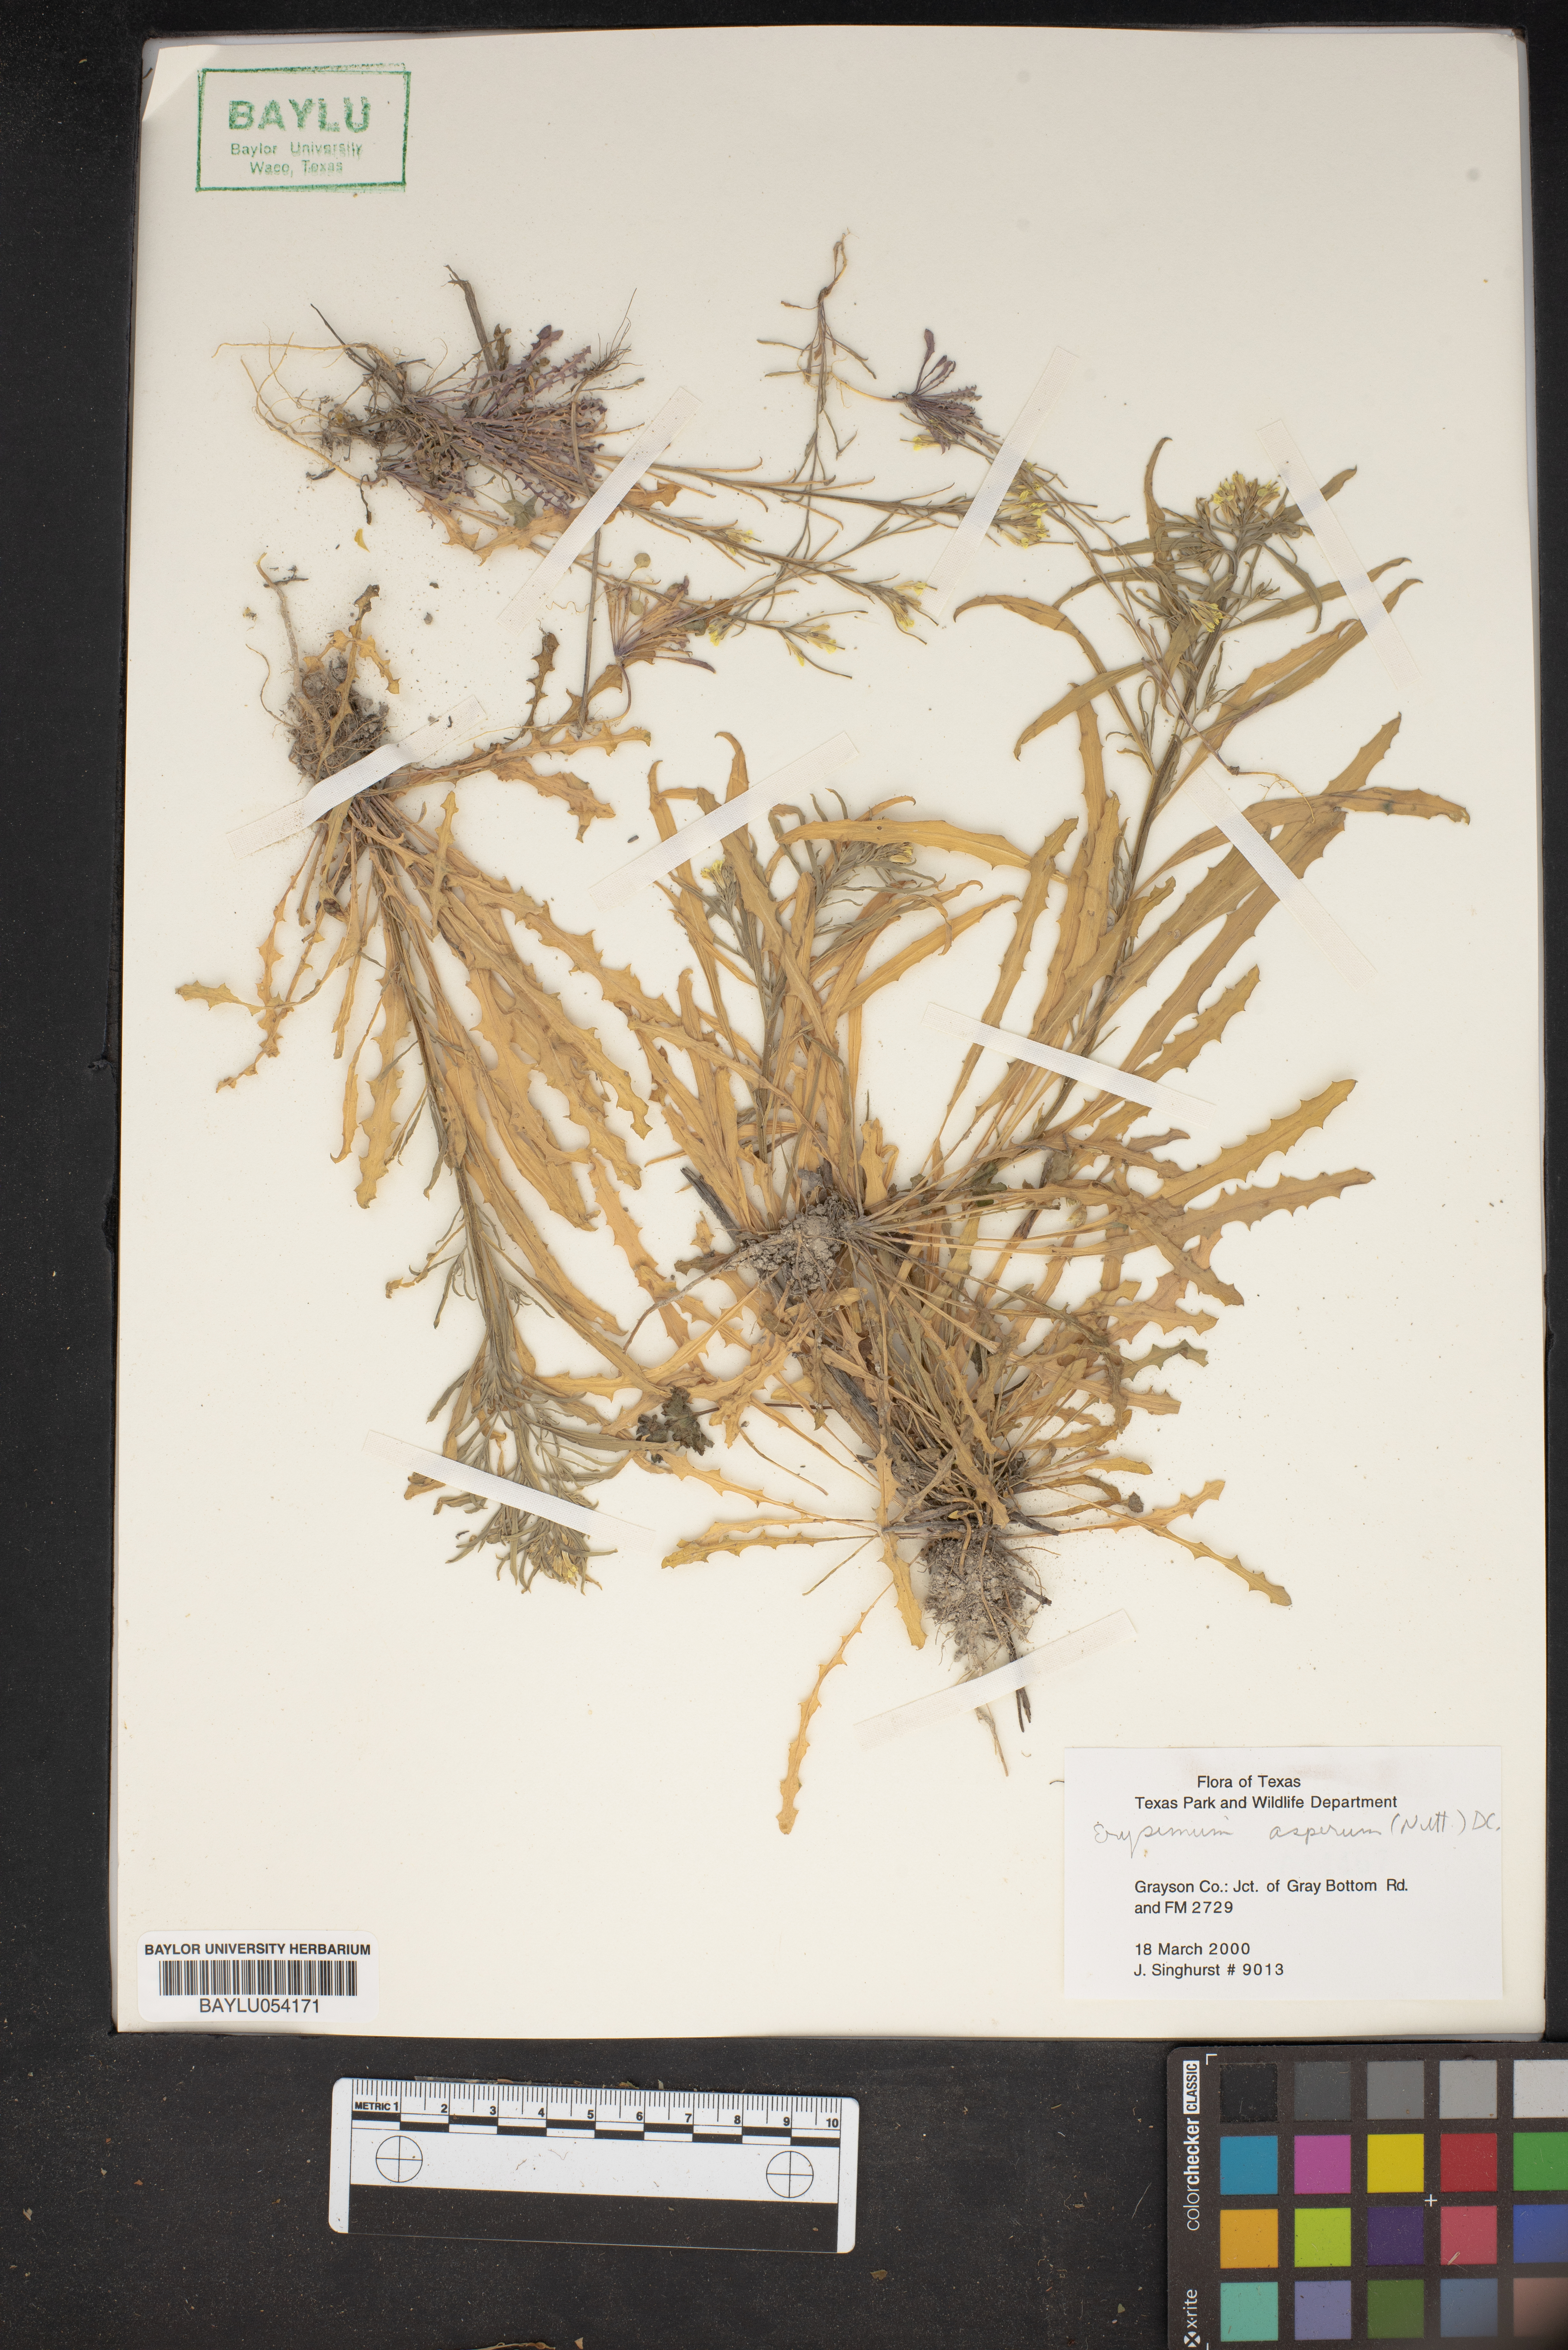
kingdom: Plantae
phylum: Tracheophyta
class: Magnoliopsida
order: Brassicales
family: Brassicaceae
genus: Erysimum
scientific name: Erysimum asperum
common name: Western wallflower
